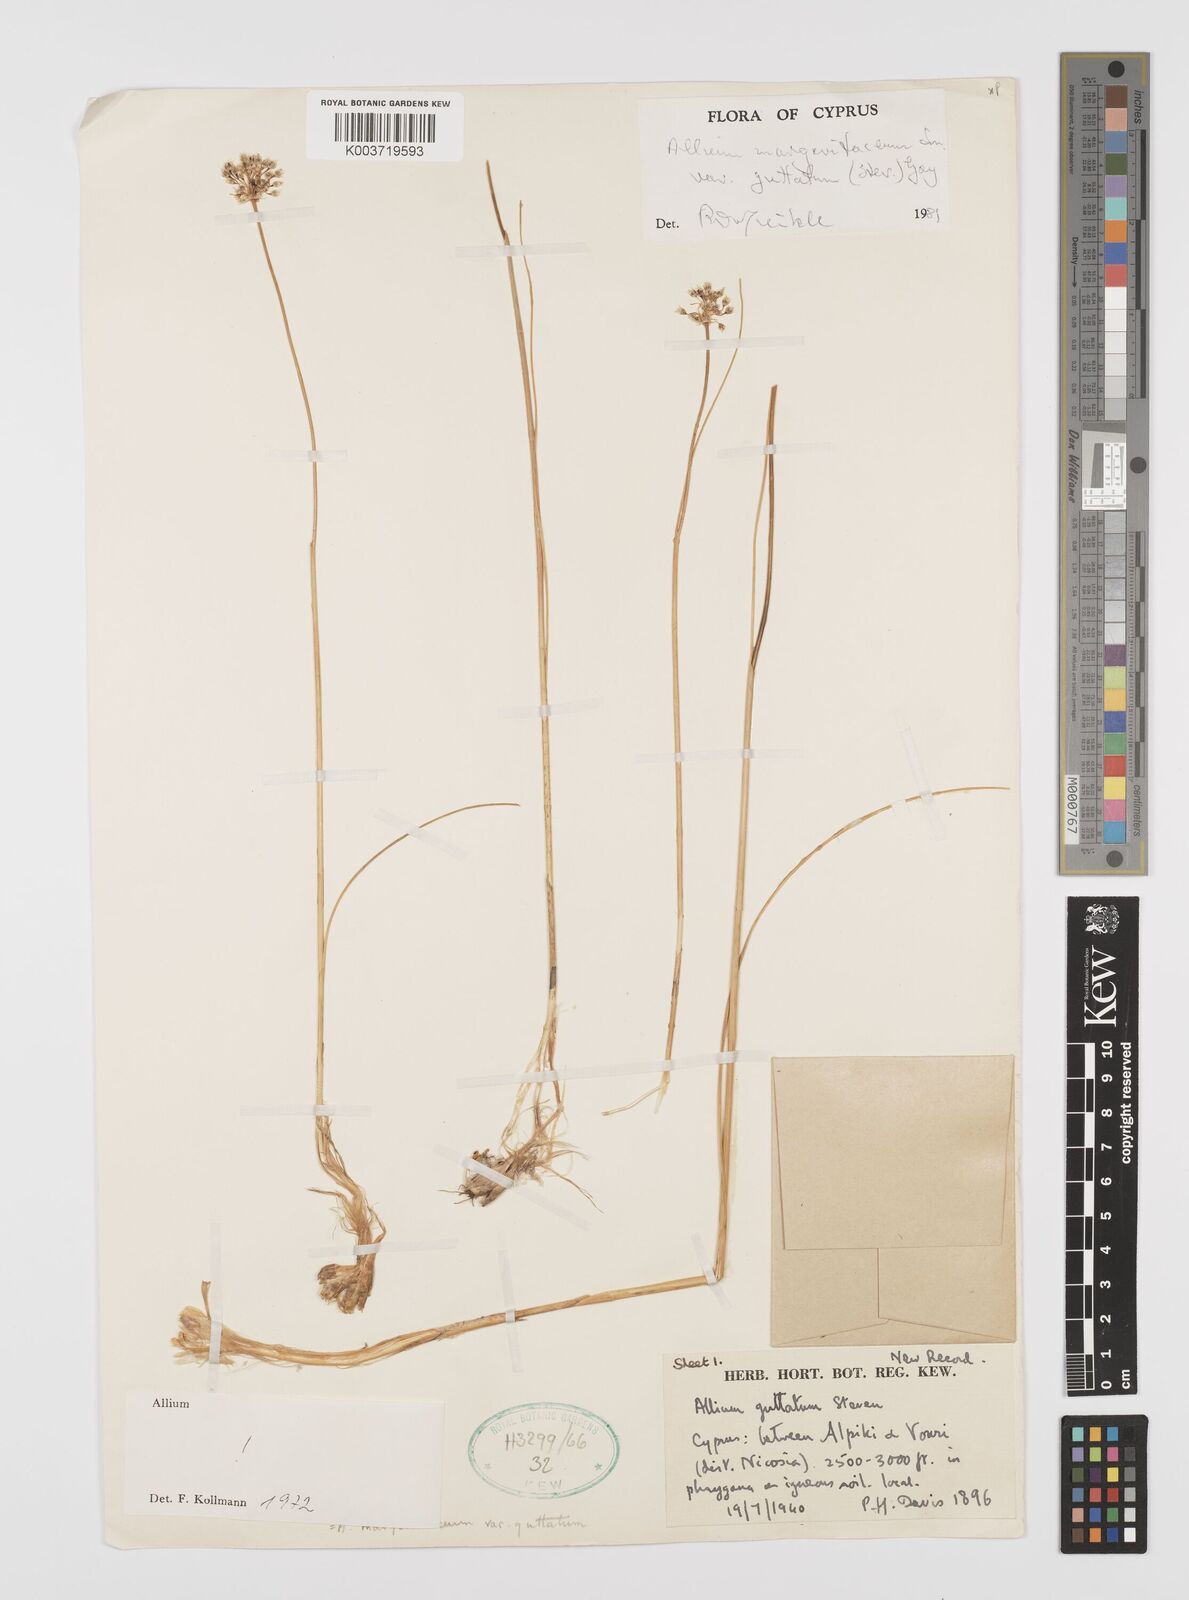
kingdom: Plantae
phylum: Tracheophyta
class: Liliopsida
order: Asparagales
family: Amaryllidaceae
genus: Allium
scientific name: Allium guttatum
